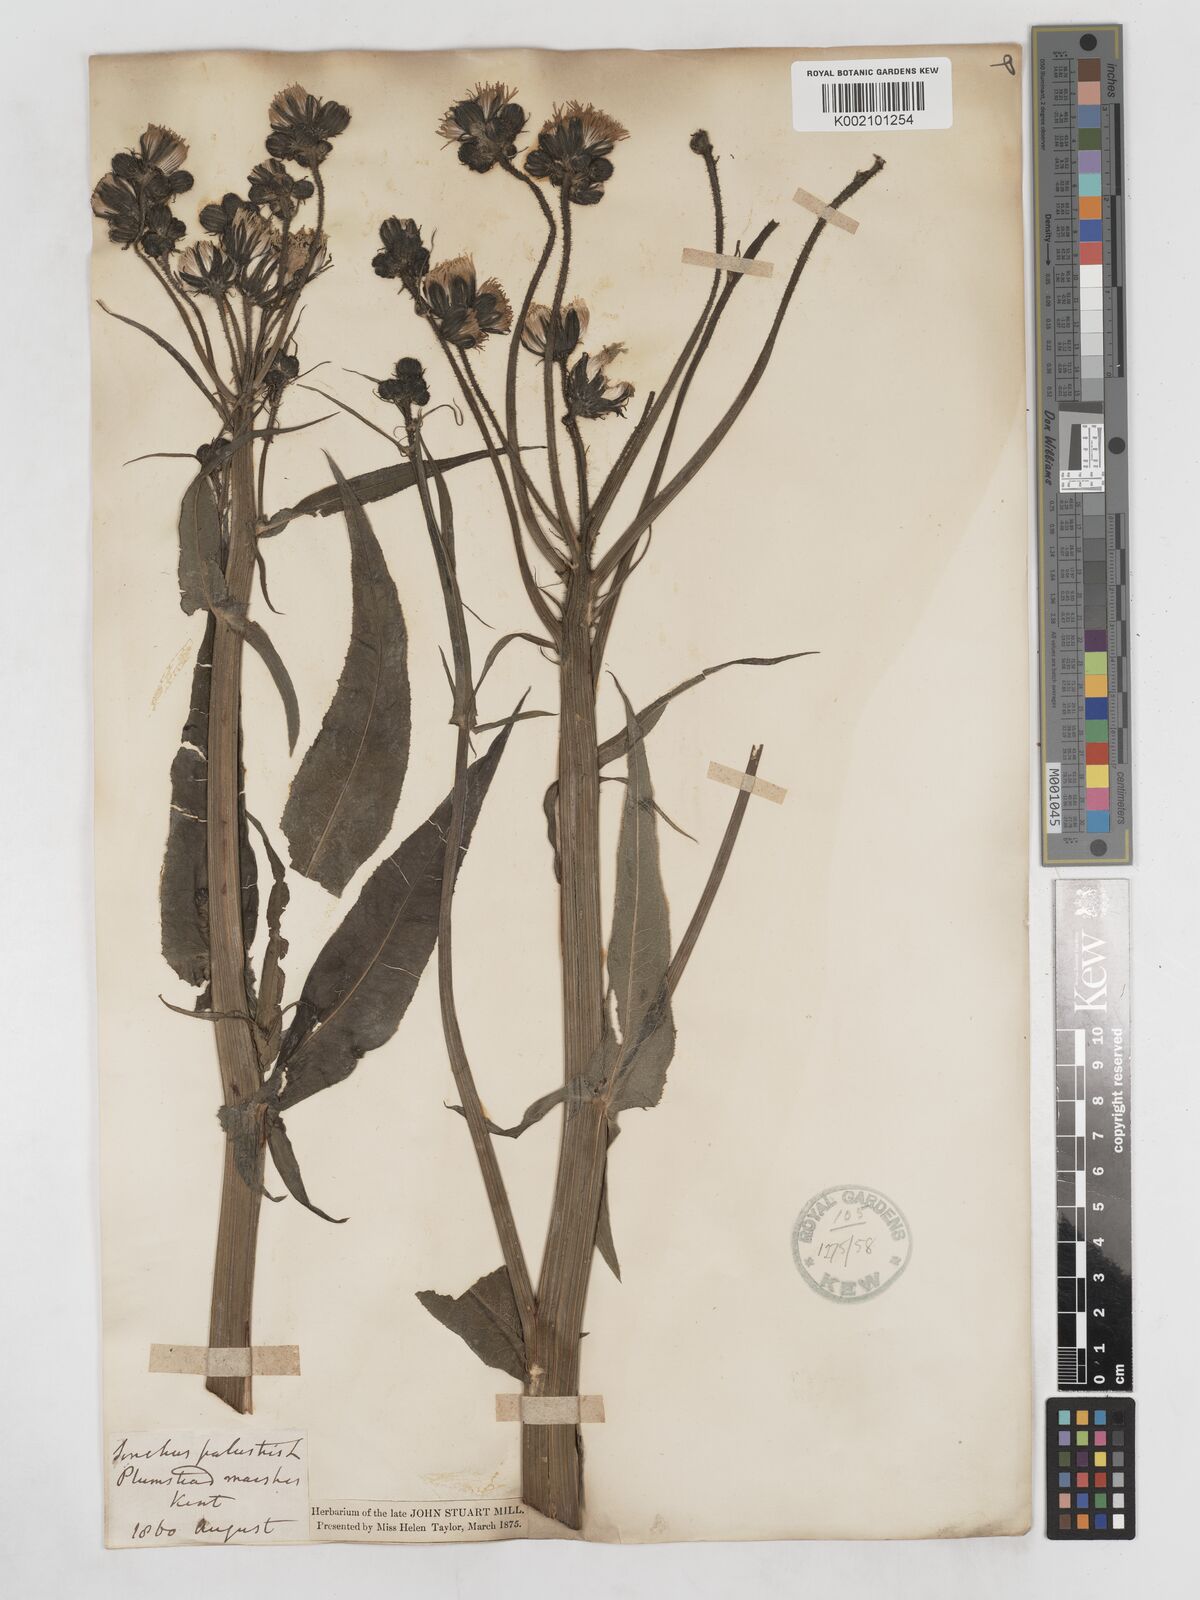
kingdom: Plantae
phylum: Tracheophyta
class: Magnoliopsida
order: Asterales
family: Asteraceae
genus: Sonchus
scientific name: Sonchus palustris
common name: Marsh sow-thistle
